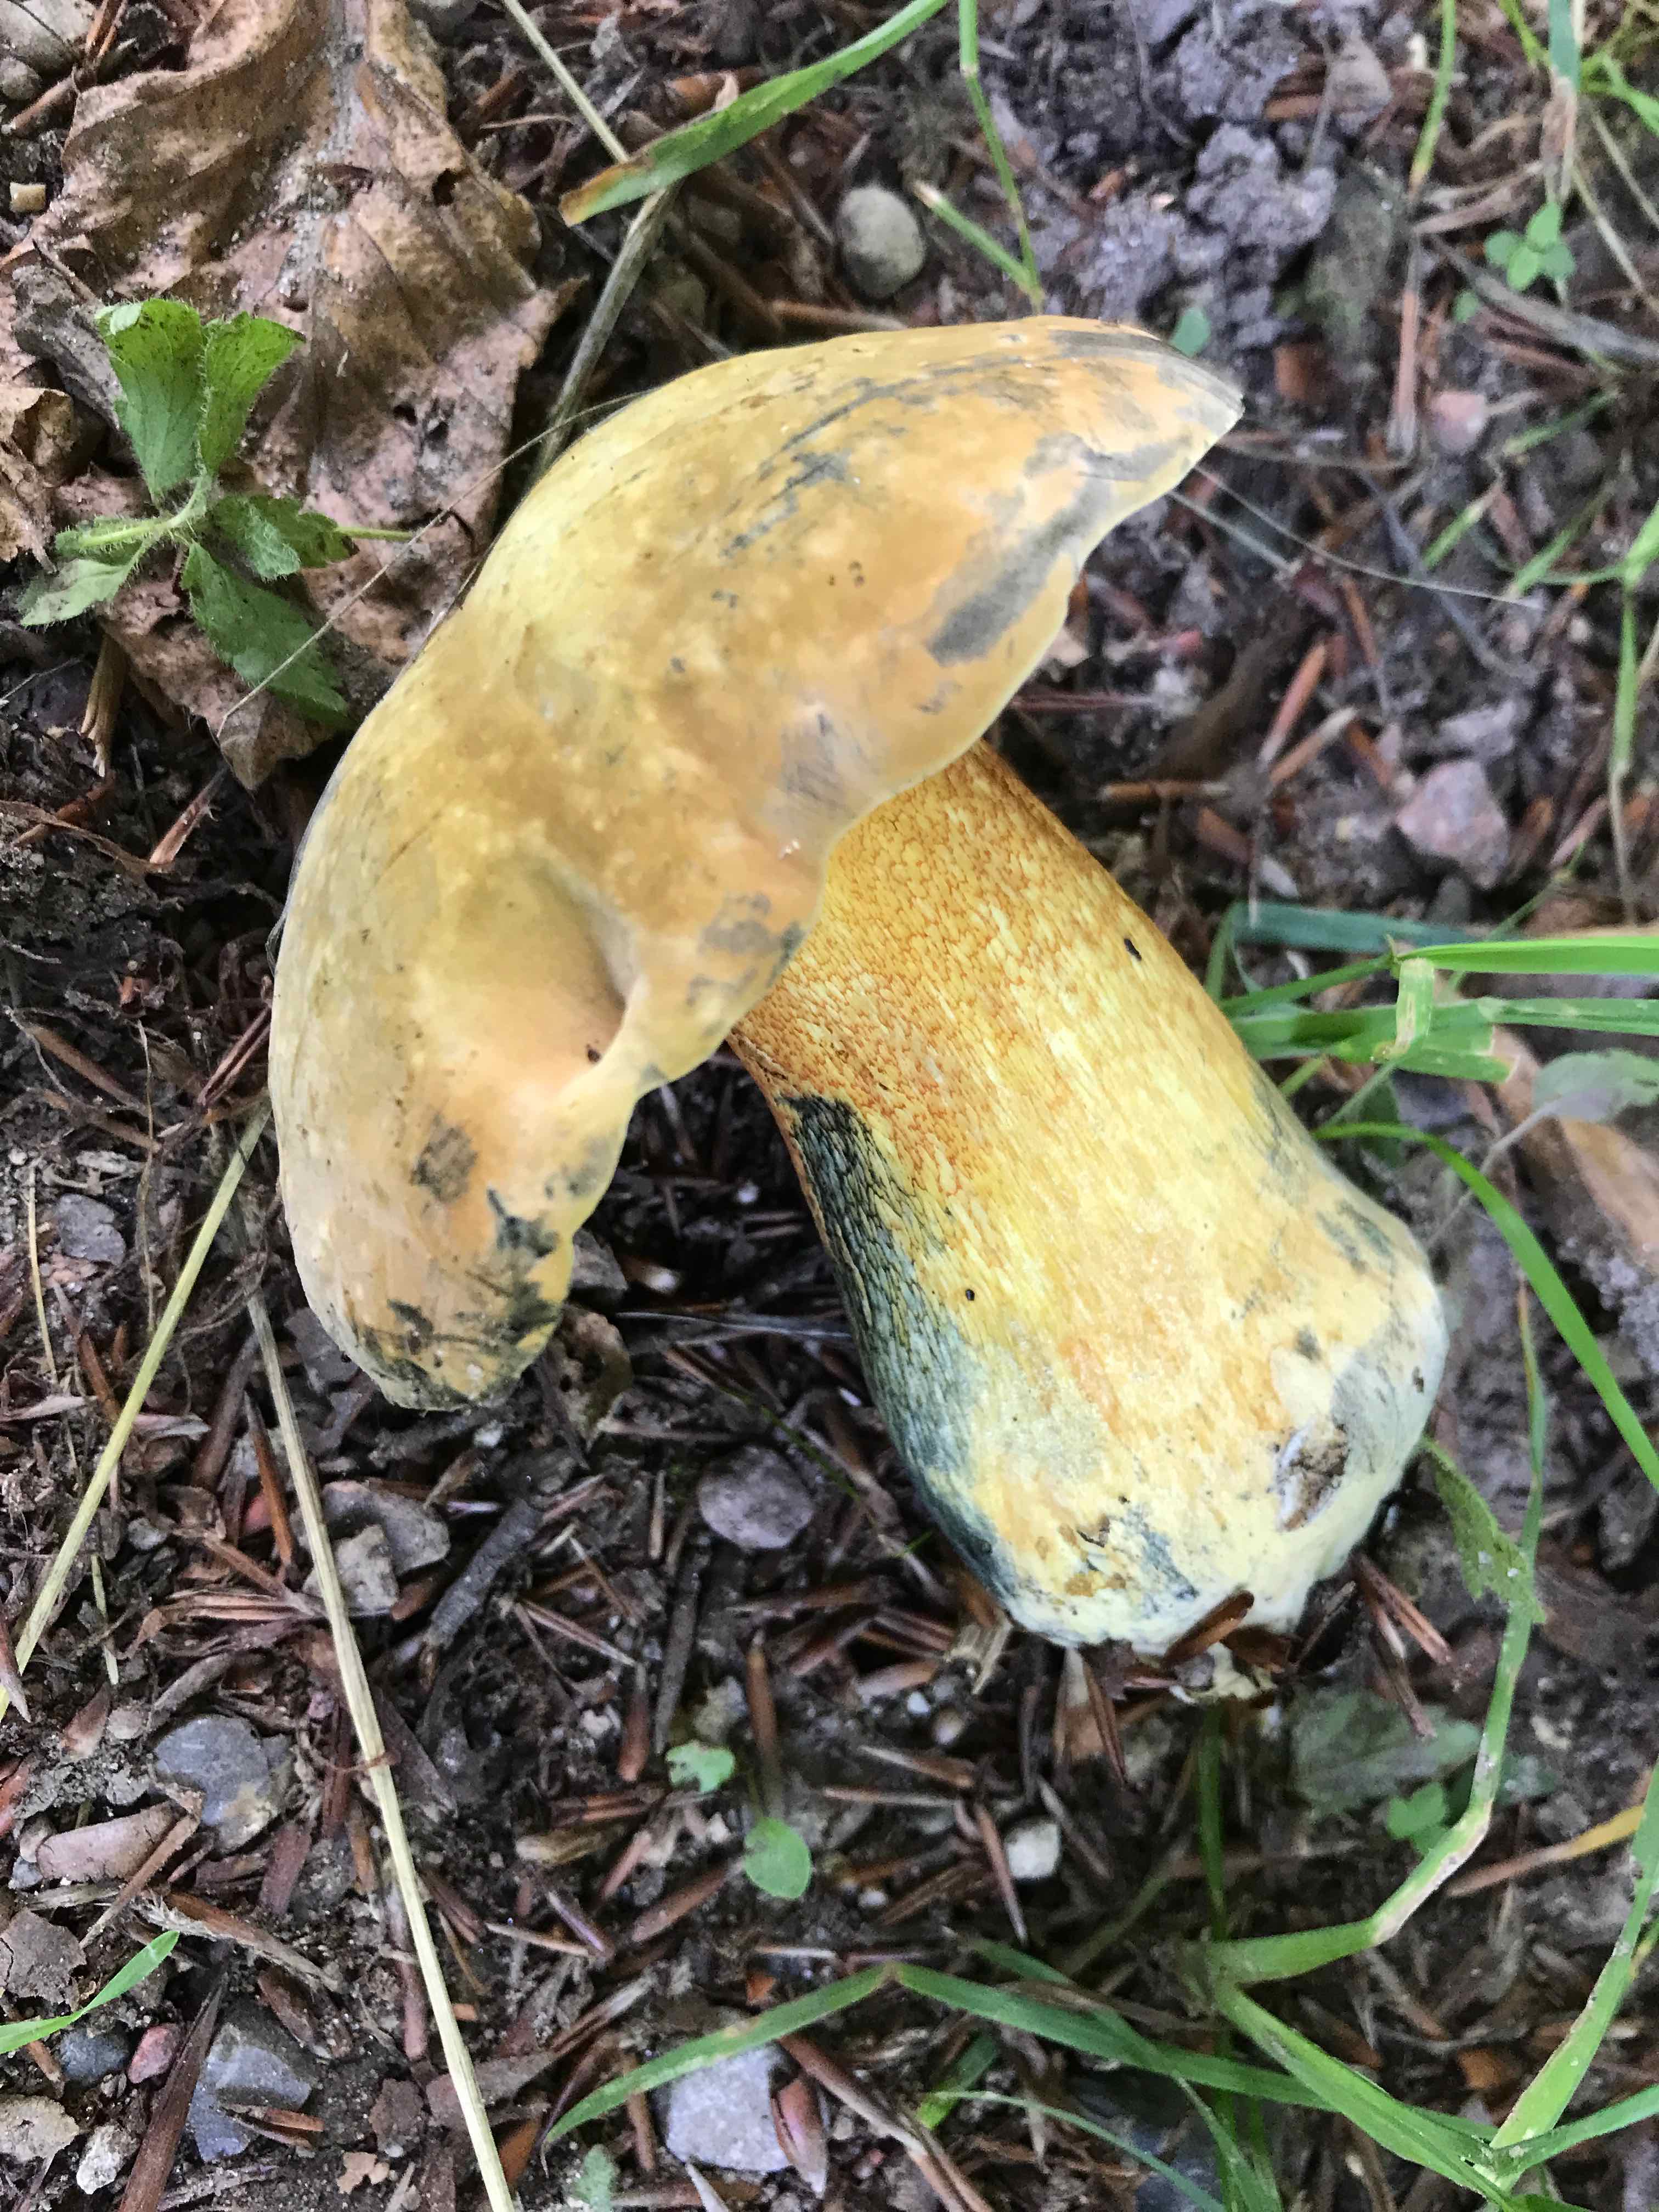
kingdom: Fungi
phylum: Basidiomycota
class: Agaricomycetes
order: Boletales
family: Boletaceae
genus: Suillellus
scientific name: Suillellus luridus
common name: netstokket indigorørhat
